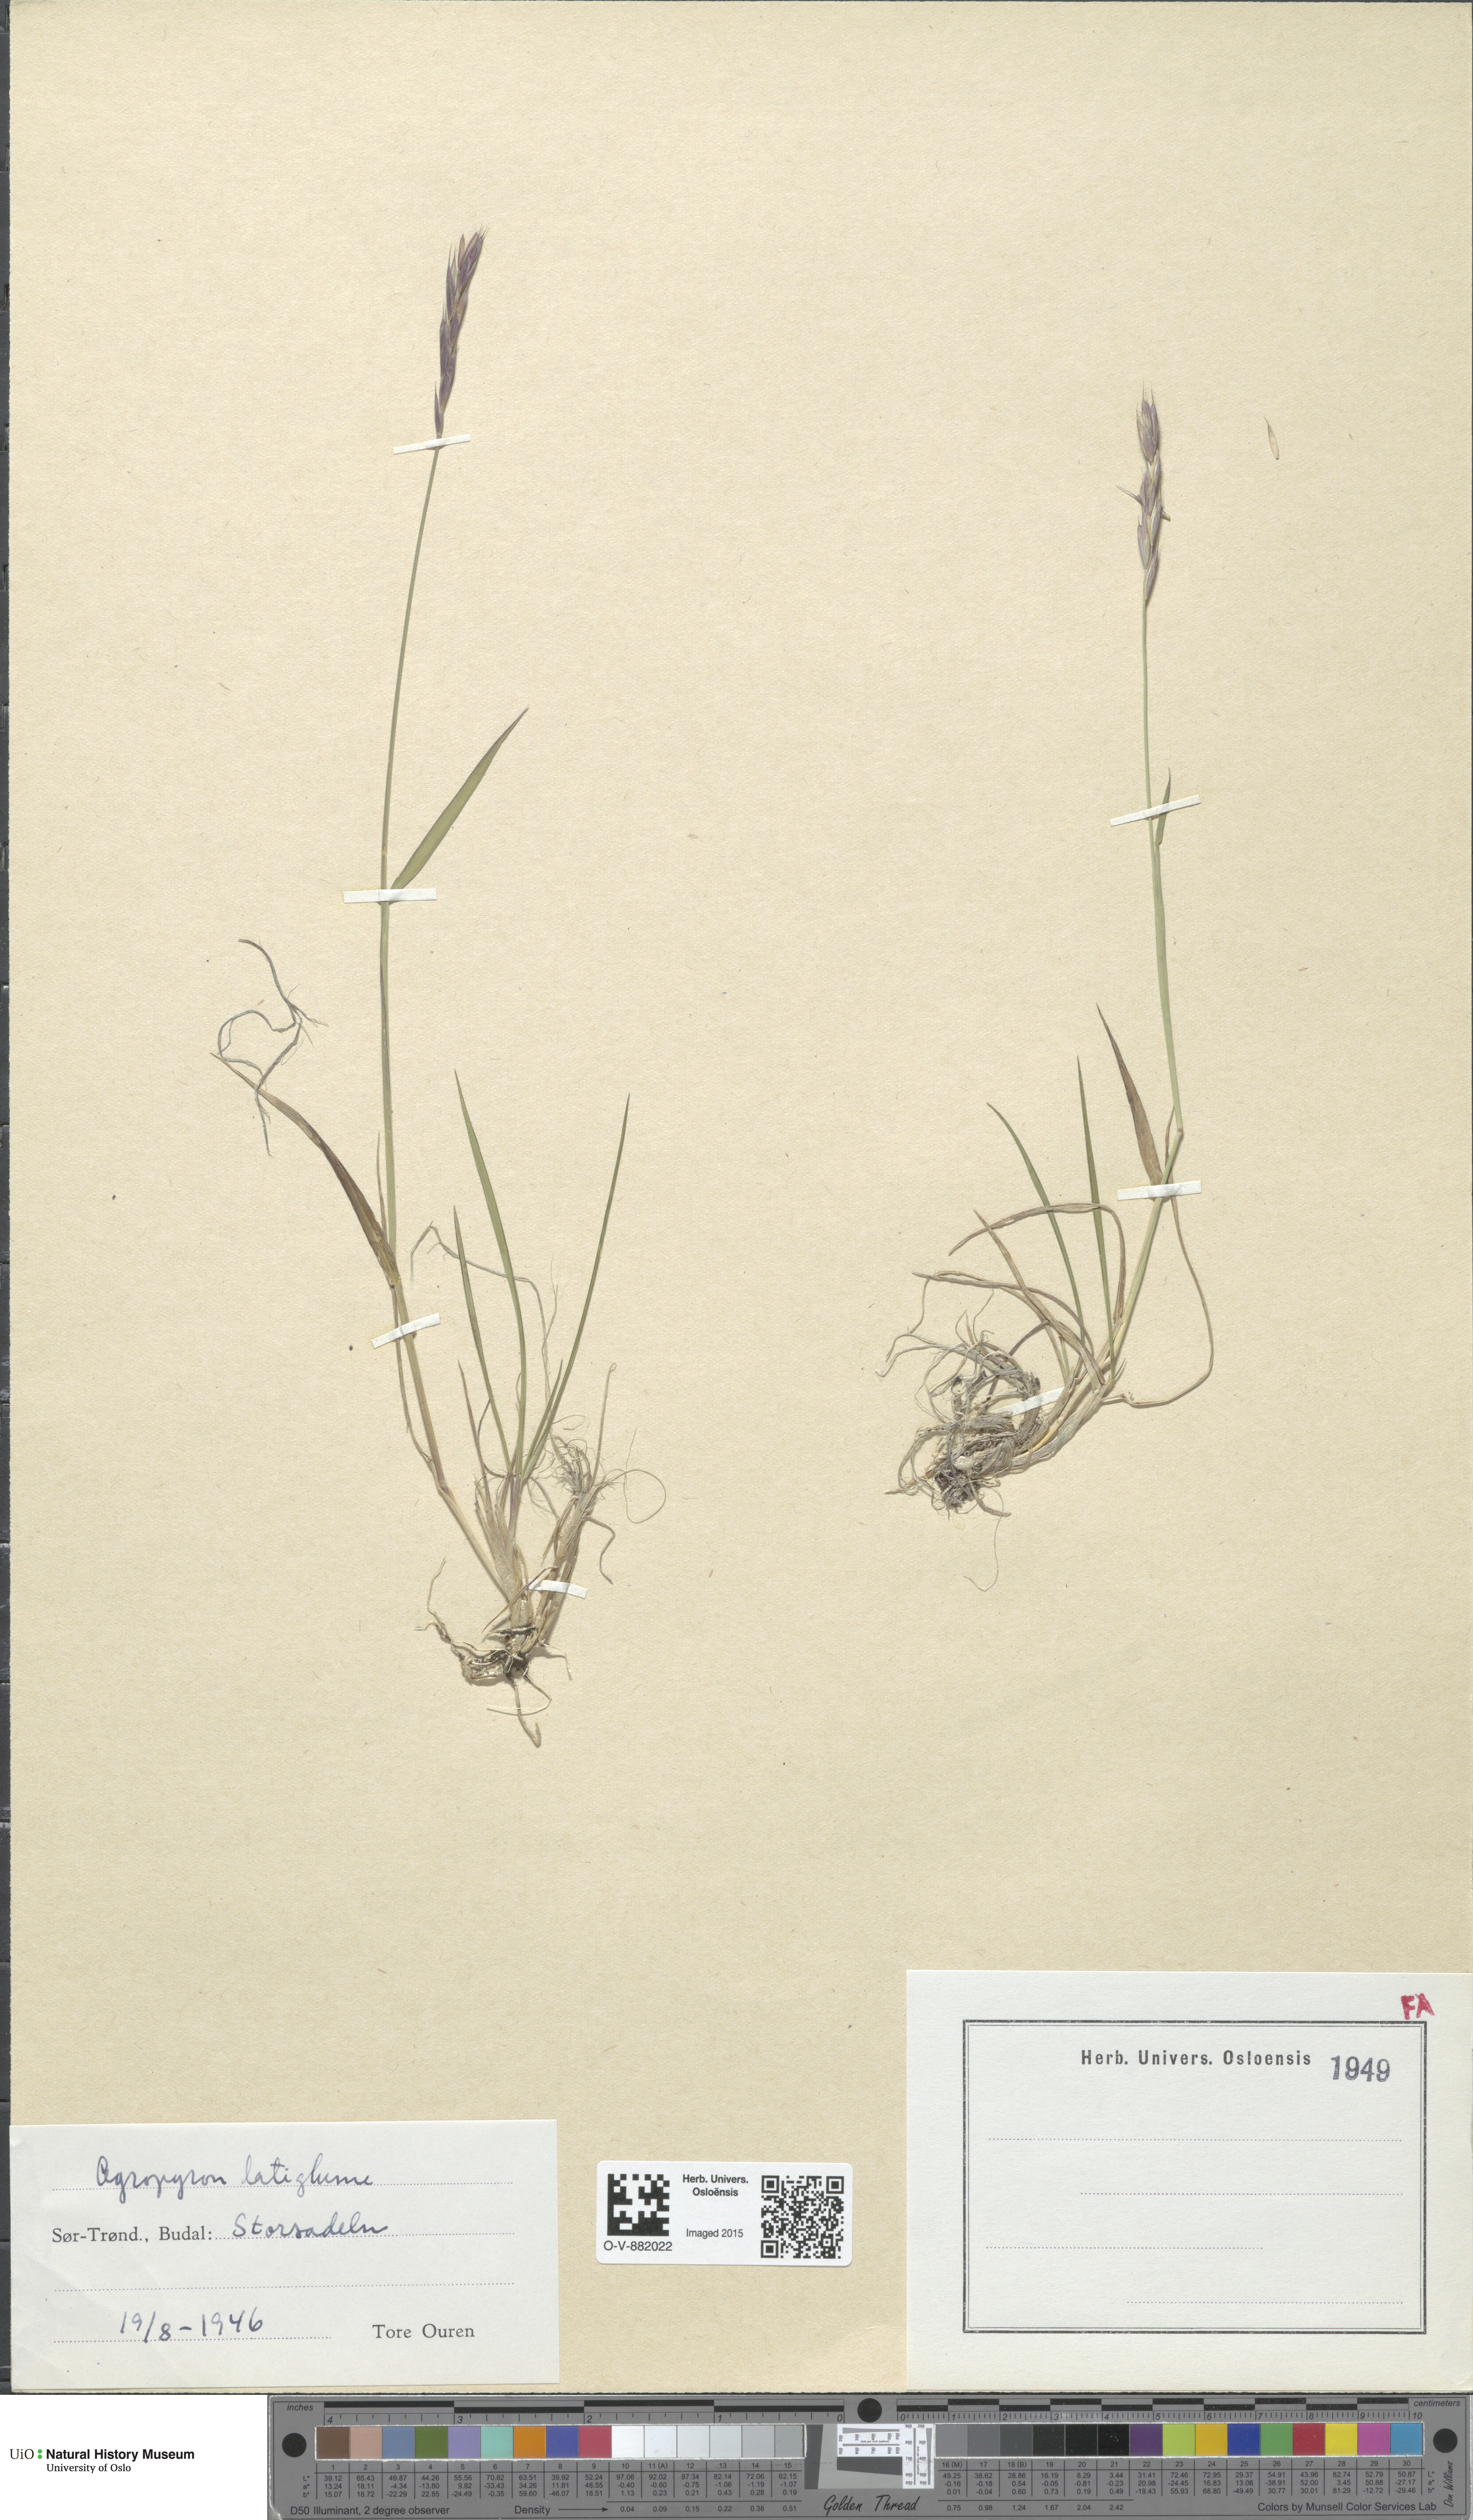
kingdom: Plantae
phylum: Tracheophyta
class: Liliopsida
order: Poales
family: Poaceae
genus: Elymus
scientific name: Elymus macrourus
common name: Northern wheatgrass
